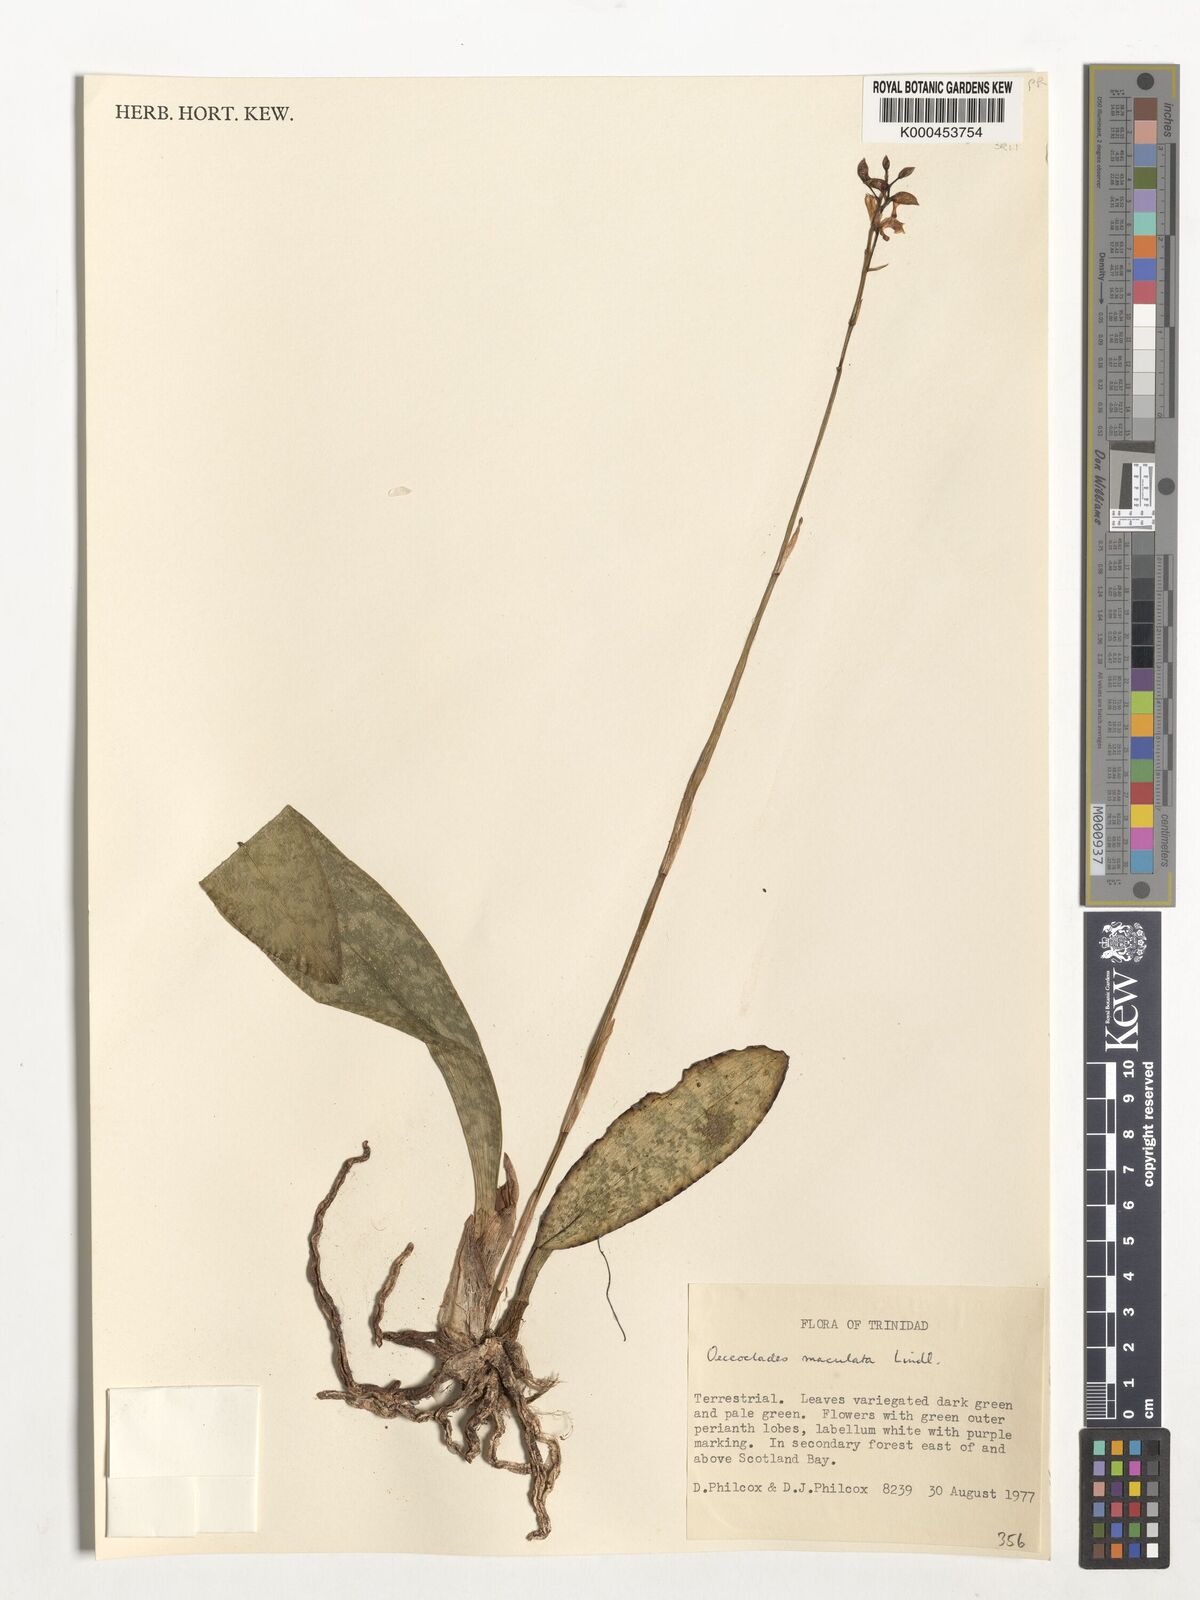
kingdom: Plantae
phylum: Tracheophyta
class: Liliopsida
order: Asparagales
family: Orchidaceae
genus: Eulophia
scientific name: Eulophia maculata
